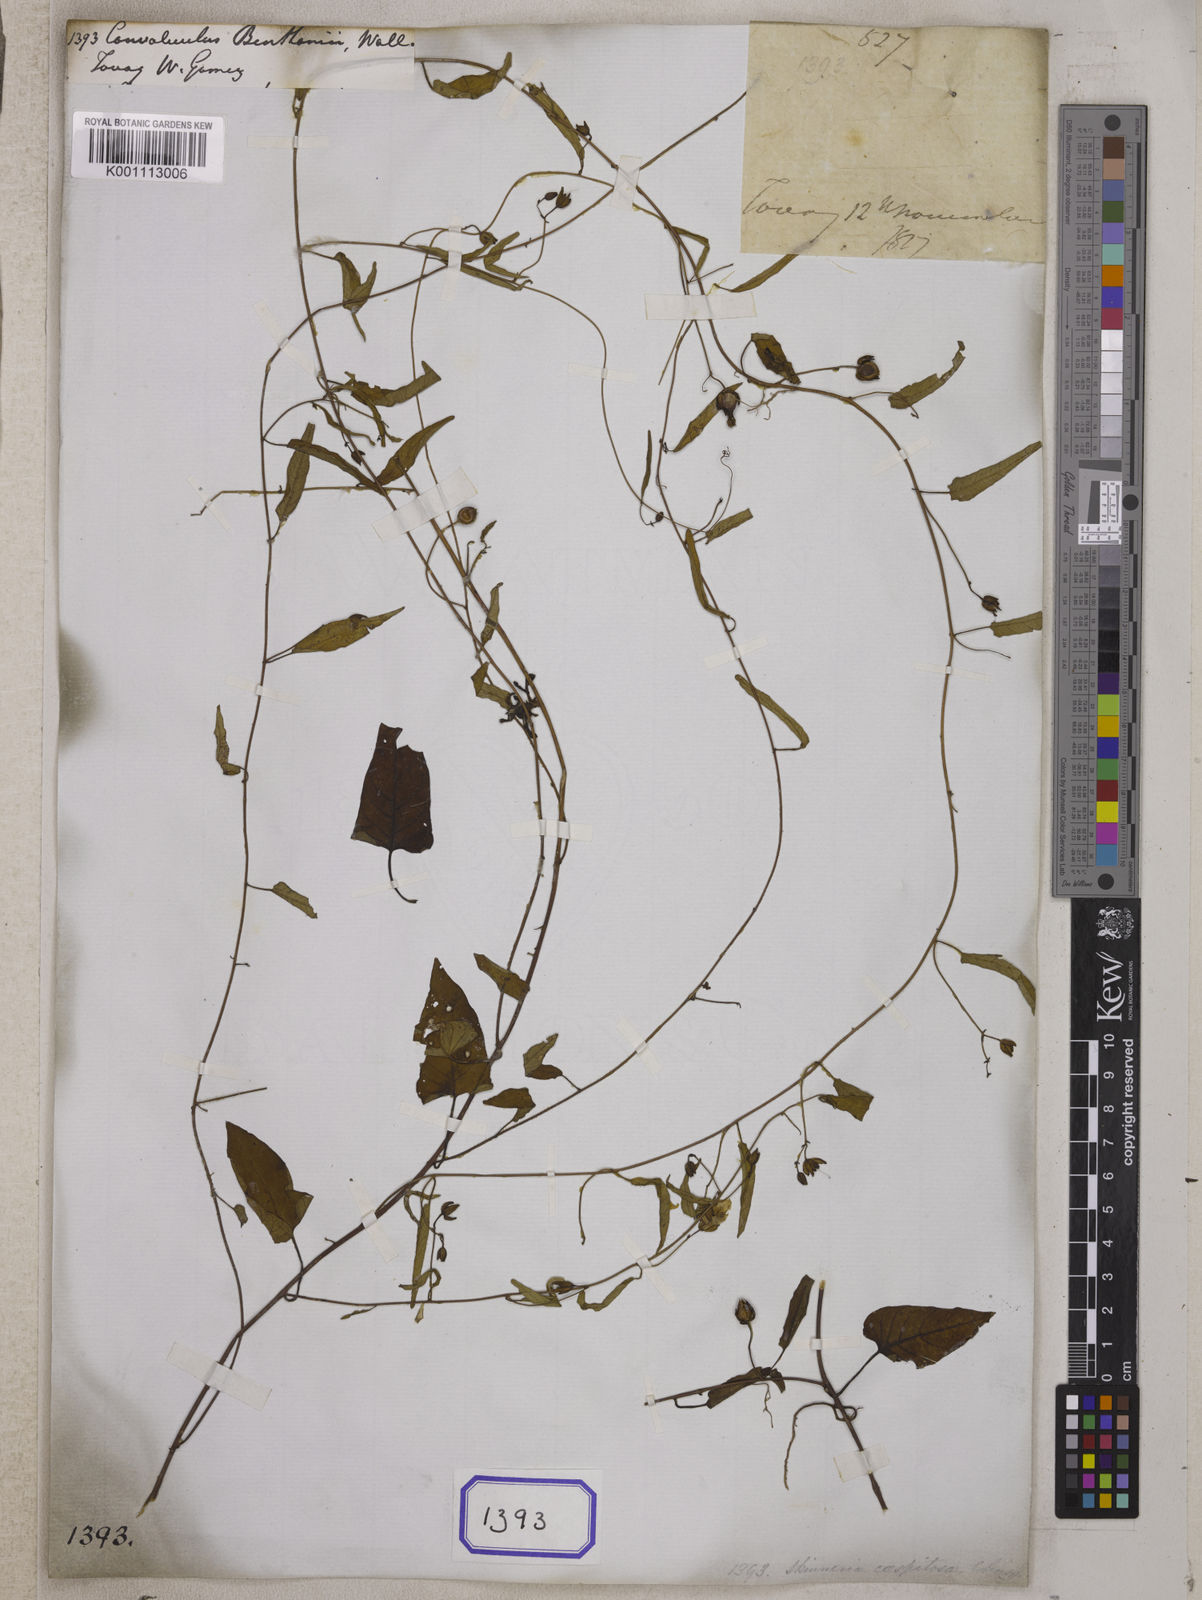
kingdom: Plantae
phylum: Tracheophyta
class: Magnoliopsida
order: Solanales
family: Convolvulaceae
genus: Merremia
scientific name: Merremia hirta
